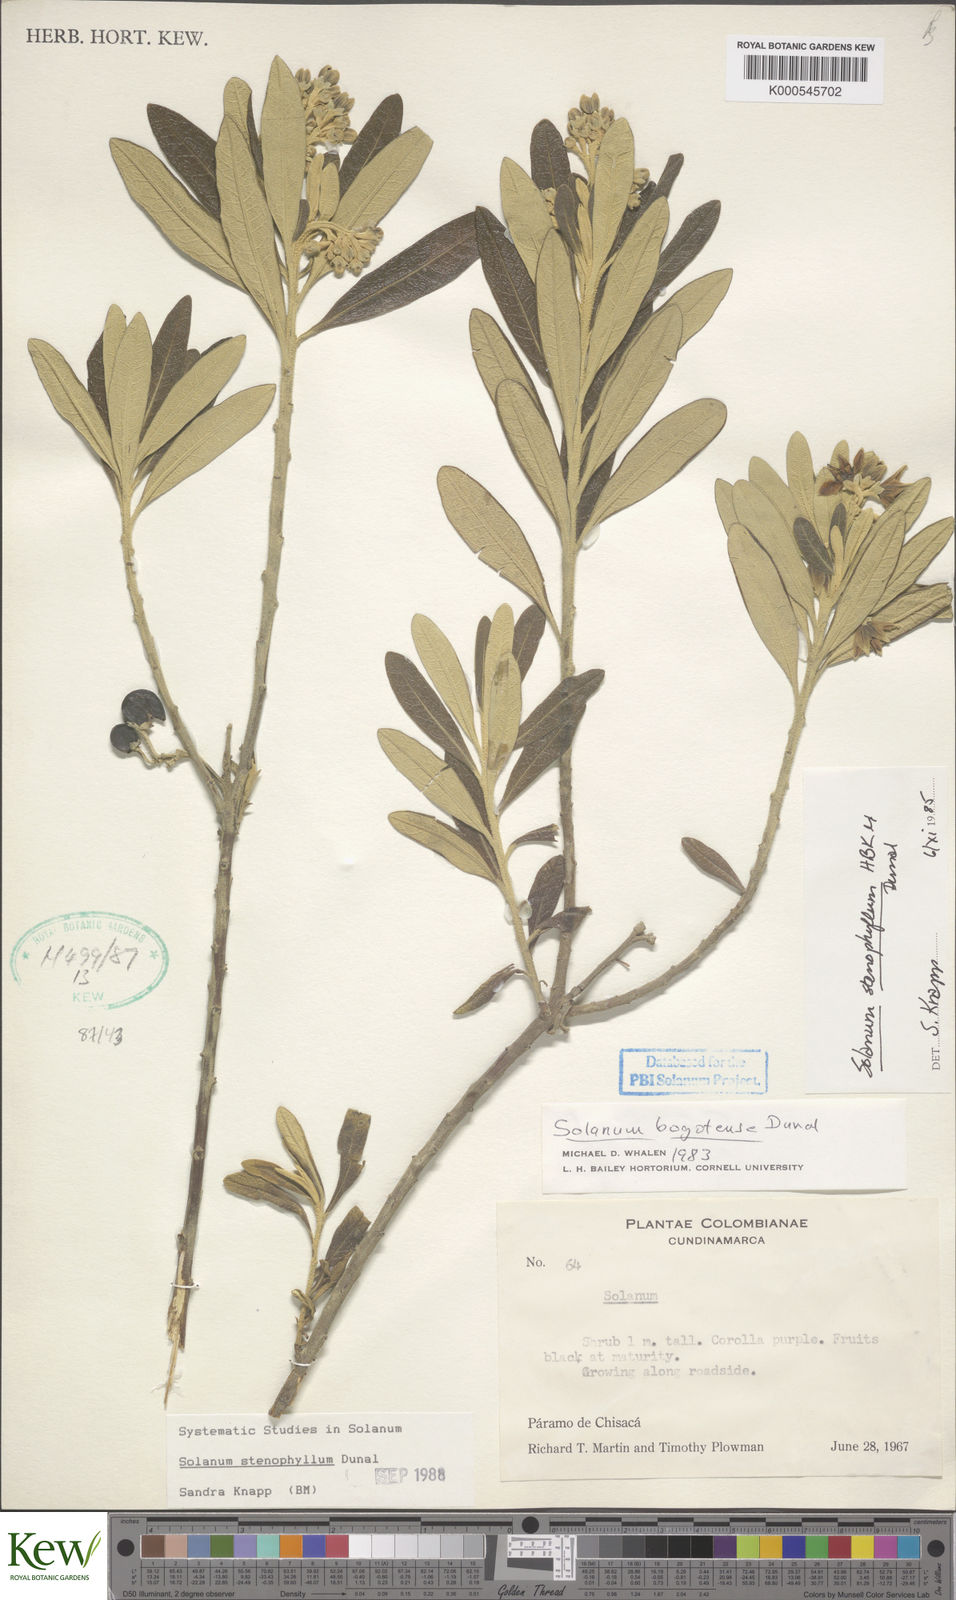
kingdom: Plantae
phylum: Tracheophyta
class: Magnoliopsida
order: Solanales
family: Solanaceae
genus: Solanum
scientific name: Solanum stenophyllum
